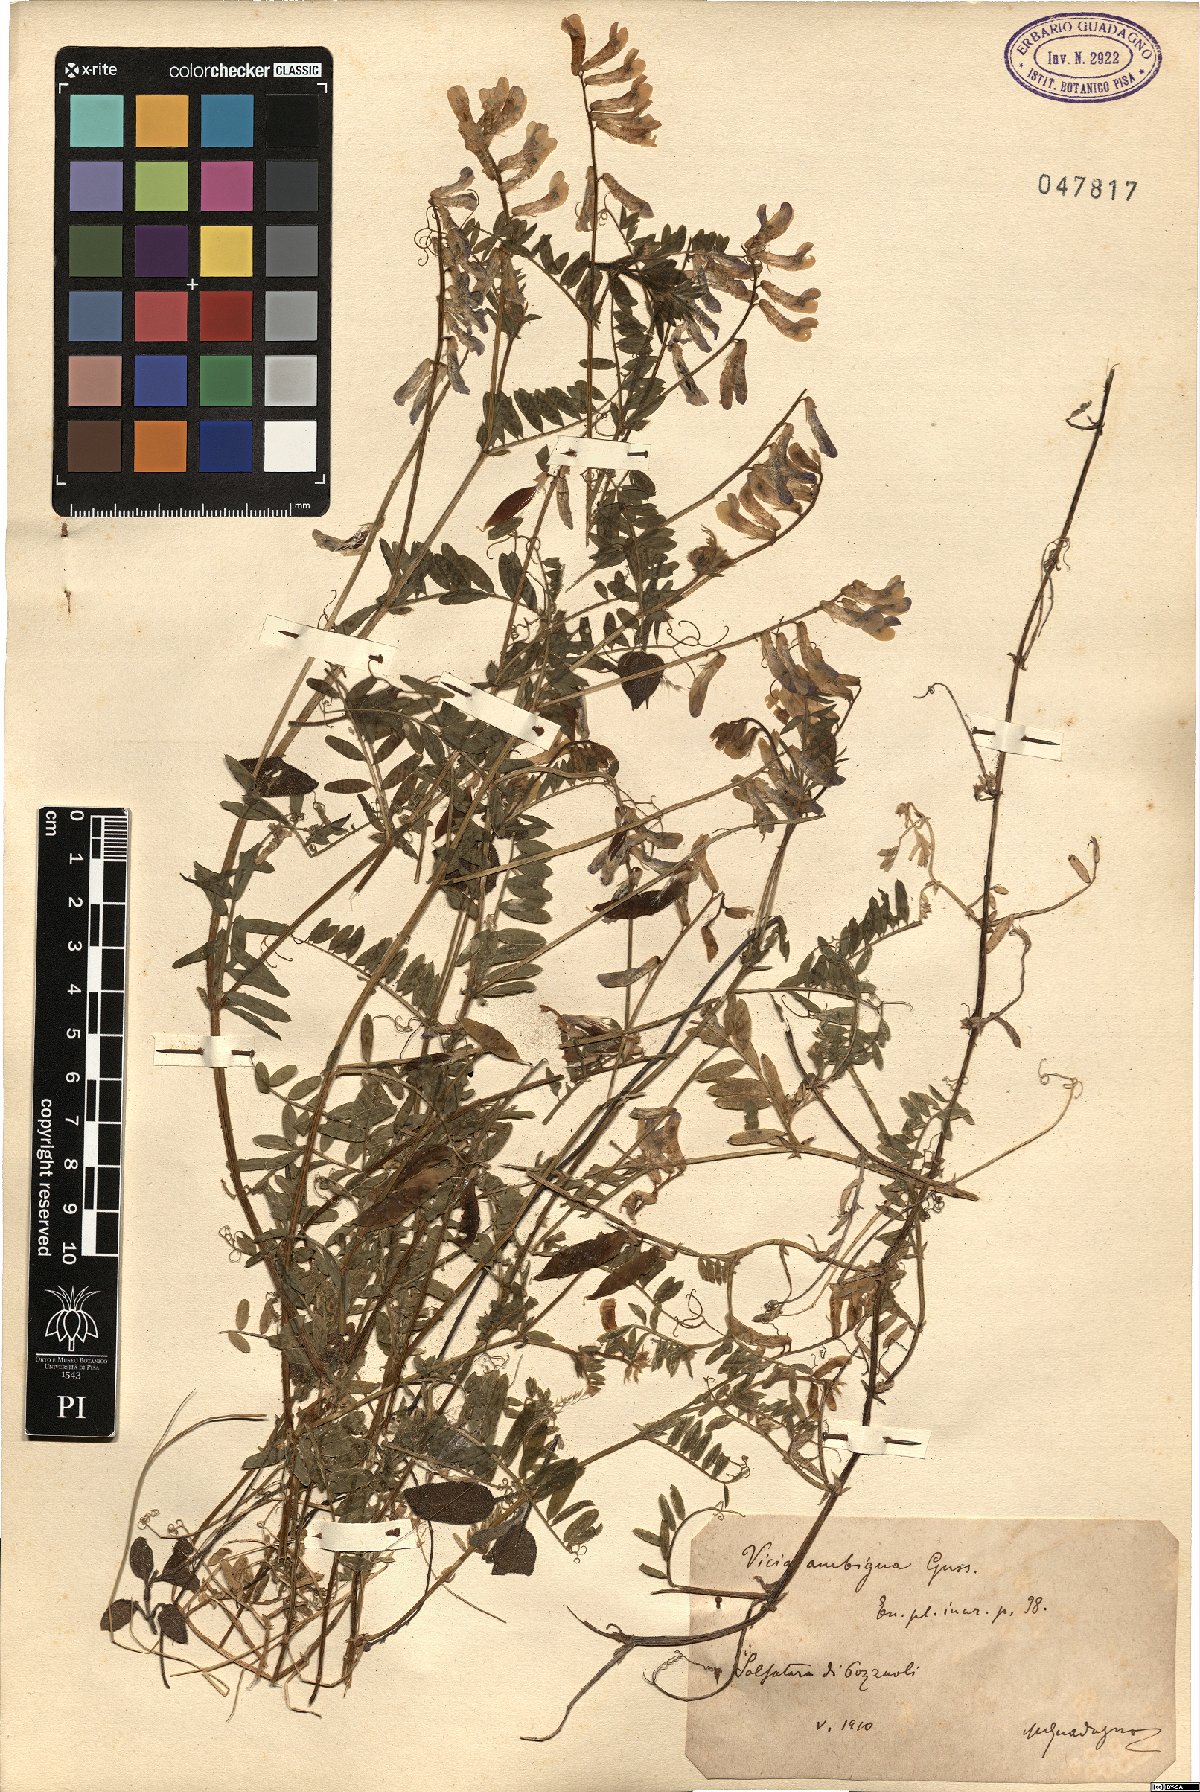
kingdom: Plantae
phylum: Tracheophyta
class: Magnoliopsida
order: Fabales
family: Fabaceae
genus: Vicia
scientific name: Vicia villosa
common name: Fodder vetch
